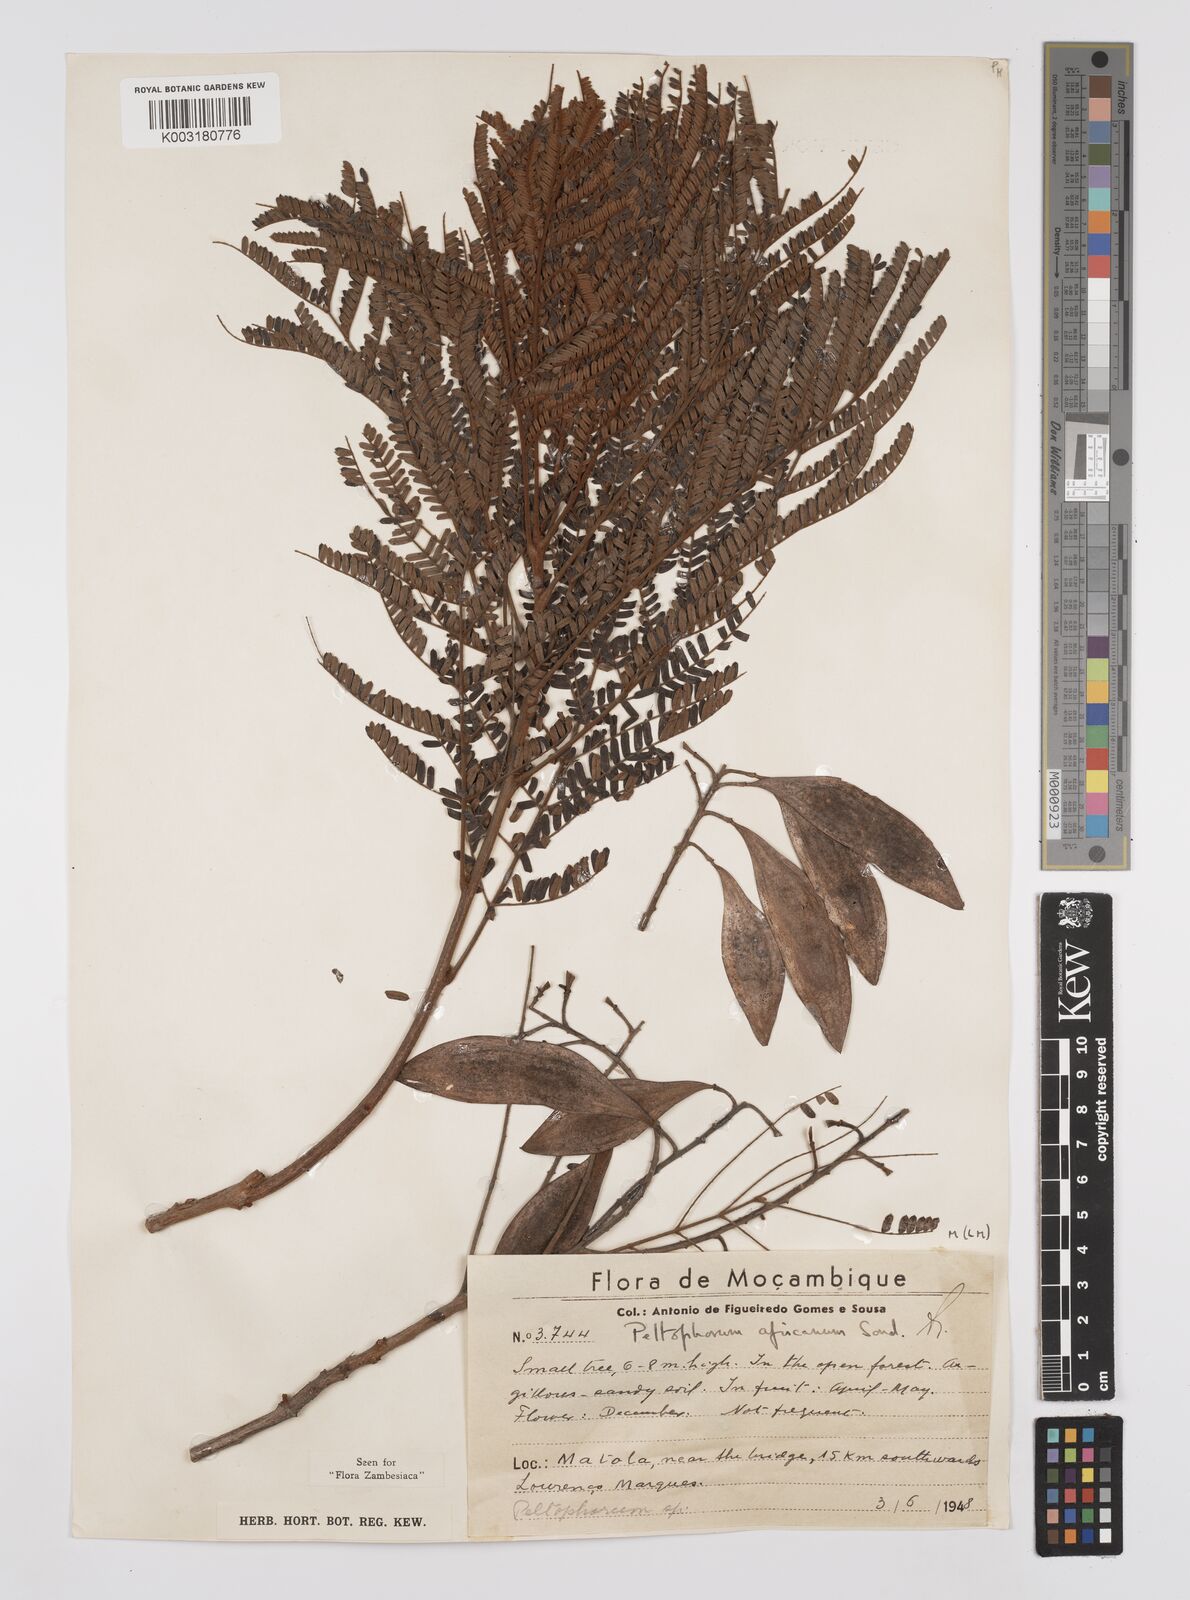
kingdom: Plantae
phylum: Tracheophyta
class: Magnoliopsida
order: Fabales
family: Fabaceae
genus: Peltophorum
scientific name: Peltophorum africanum
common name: African black wattle
